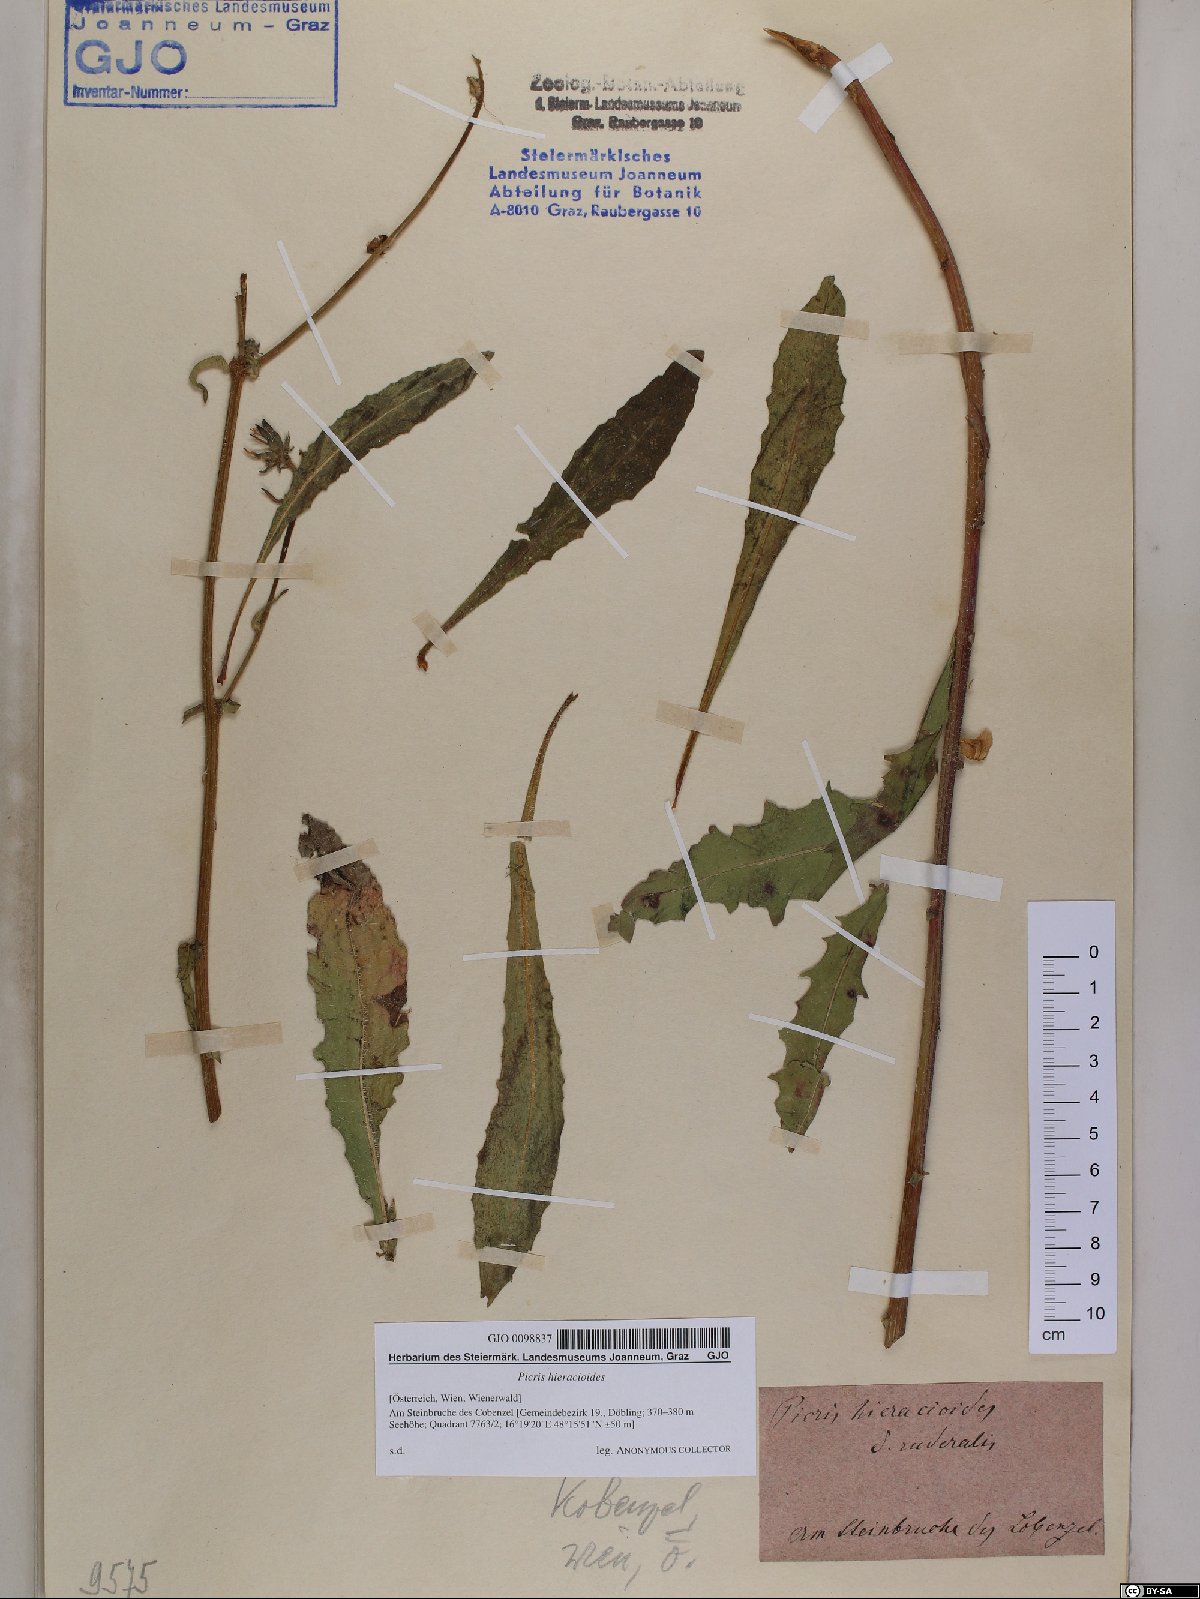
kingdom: Plantae
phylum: Tracheophyta
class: Magnoliopsida
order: Asterales
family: Asteraceae
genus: Picris
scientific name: Picris hieracioides
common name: Hawkweed oxtongue
